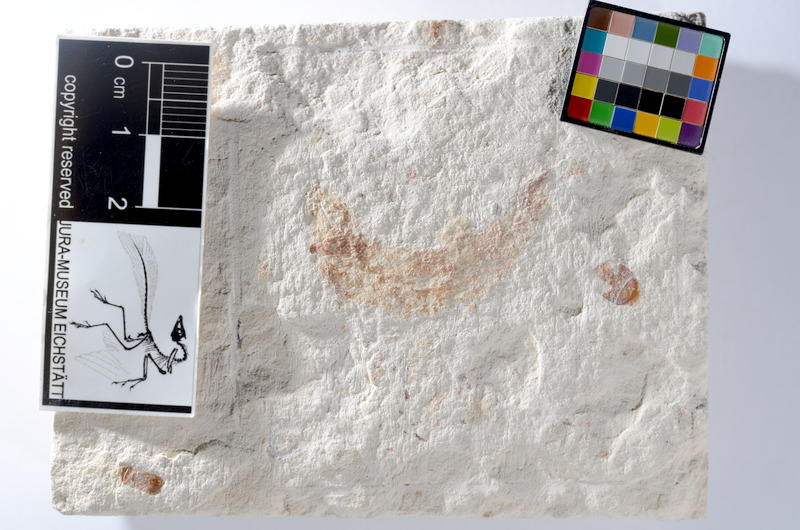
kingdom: Animalia
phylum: Chordata
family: Ascalaboidae
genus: Tharsis
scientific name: Tharsis dubius
